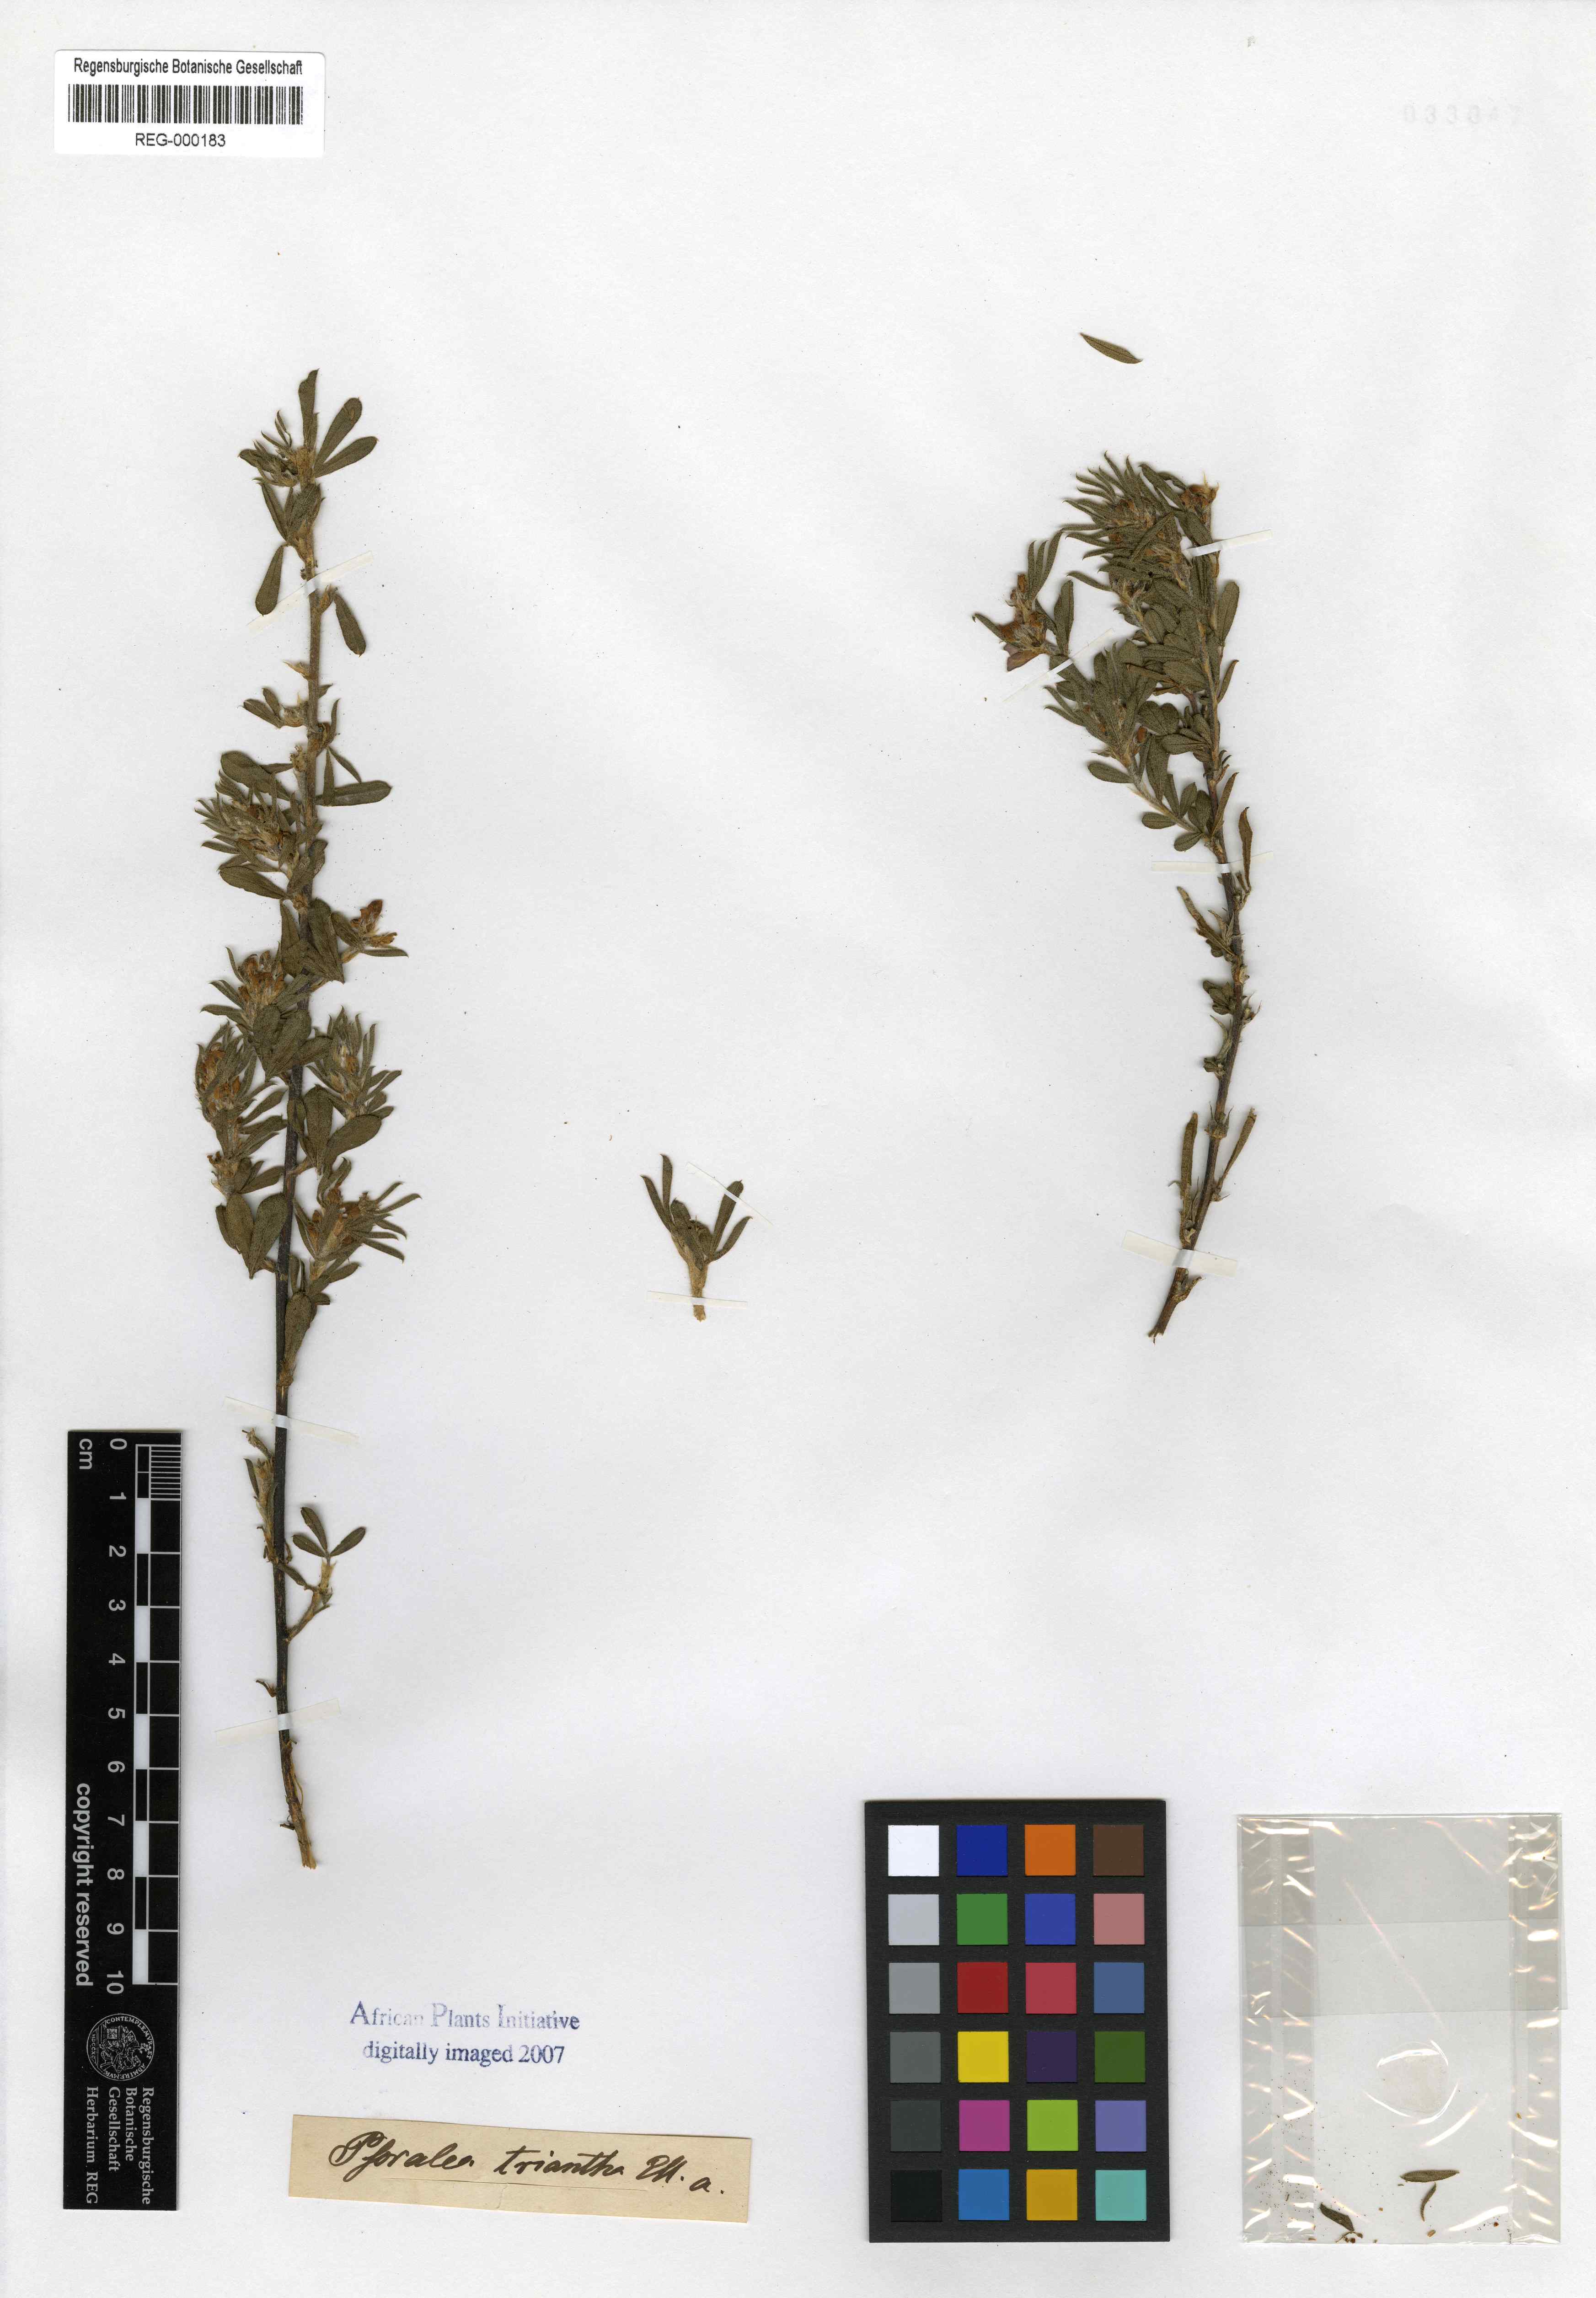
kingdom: Plantae
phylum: Tracheophyta
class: Magnoliopsida
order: Fabales
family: Fabaceae
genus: Psoralea
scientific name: Psoralea triantha
